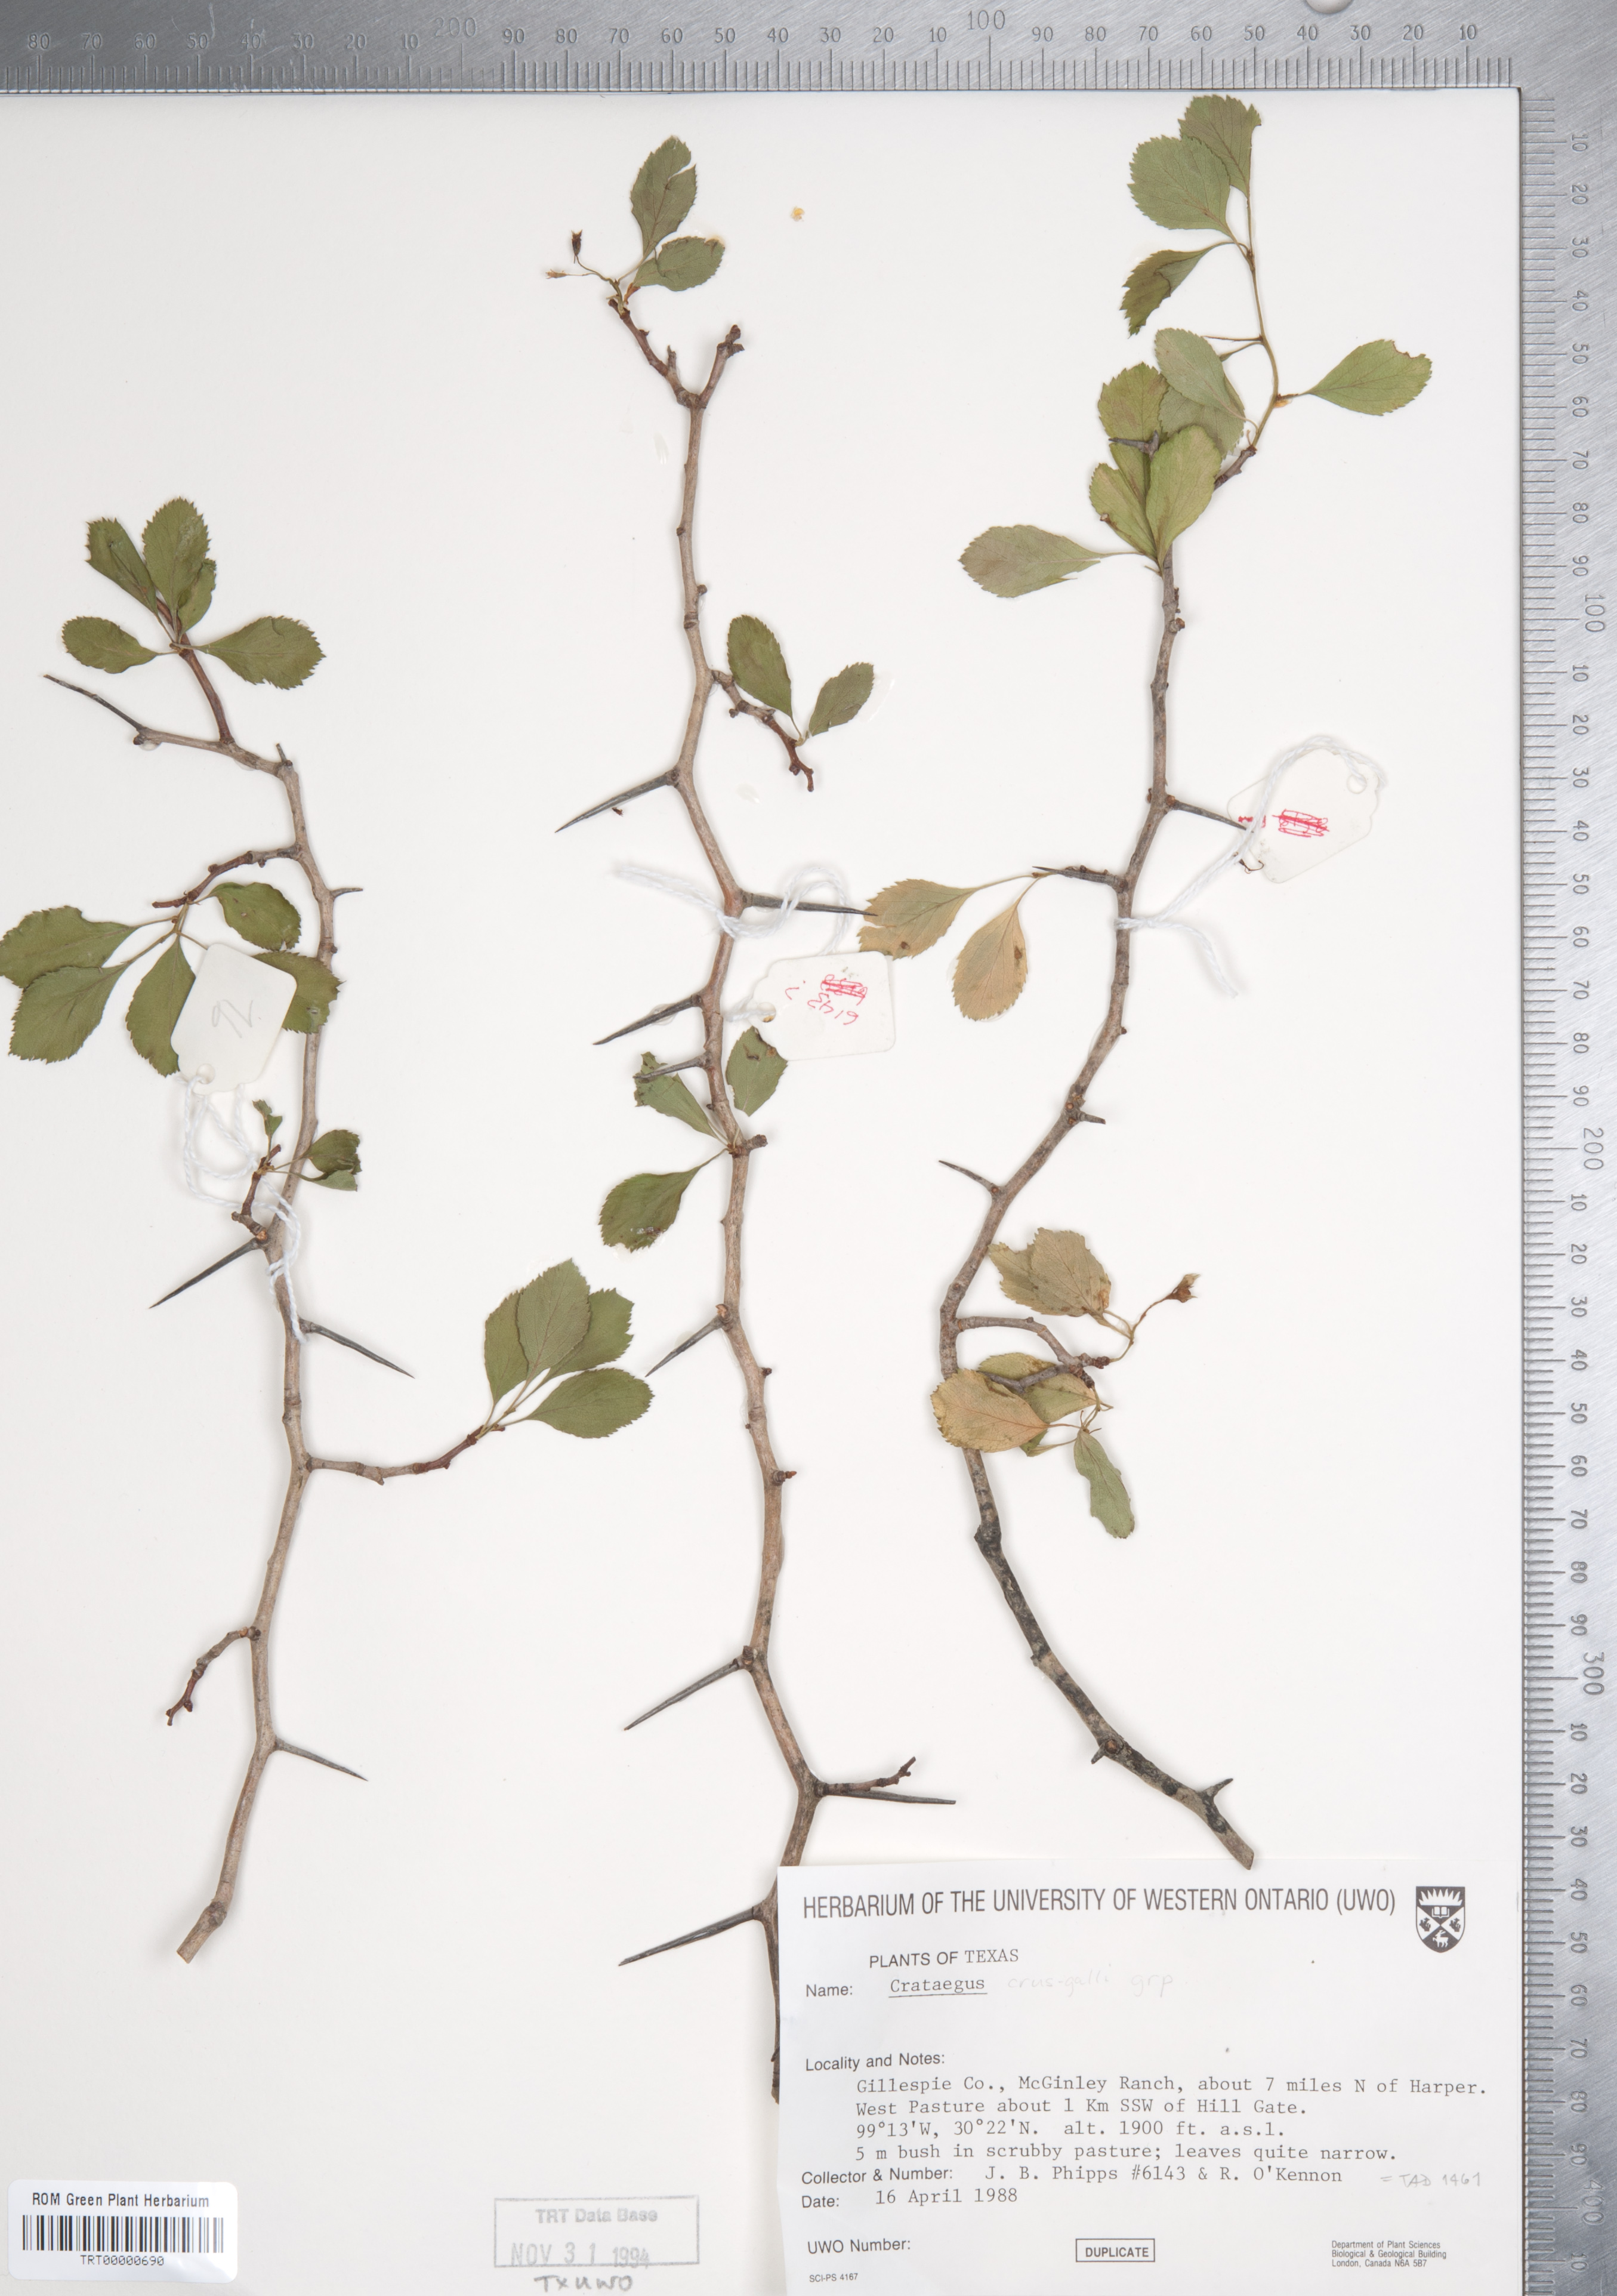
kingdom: Plantae
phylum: Tracheophyta
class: Magnoliopsida
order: Rosales
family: Rosaceae
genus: Crataegus
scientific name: Crataegus crus-galli
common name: Cockspurthorn
